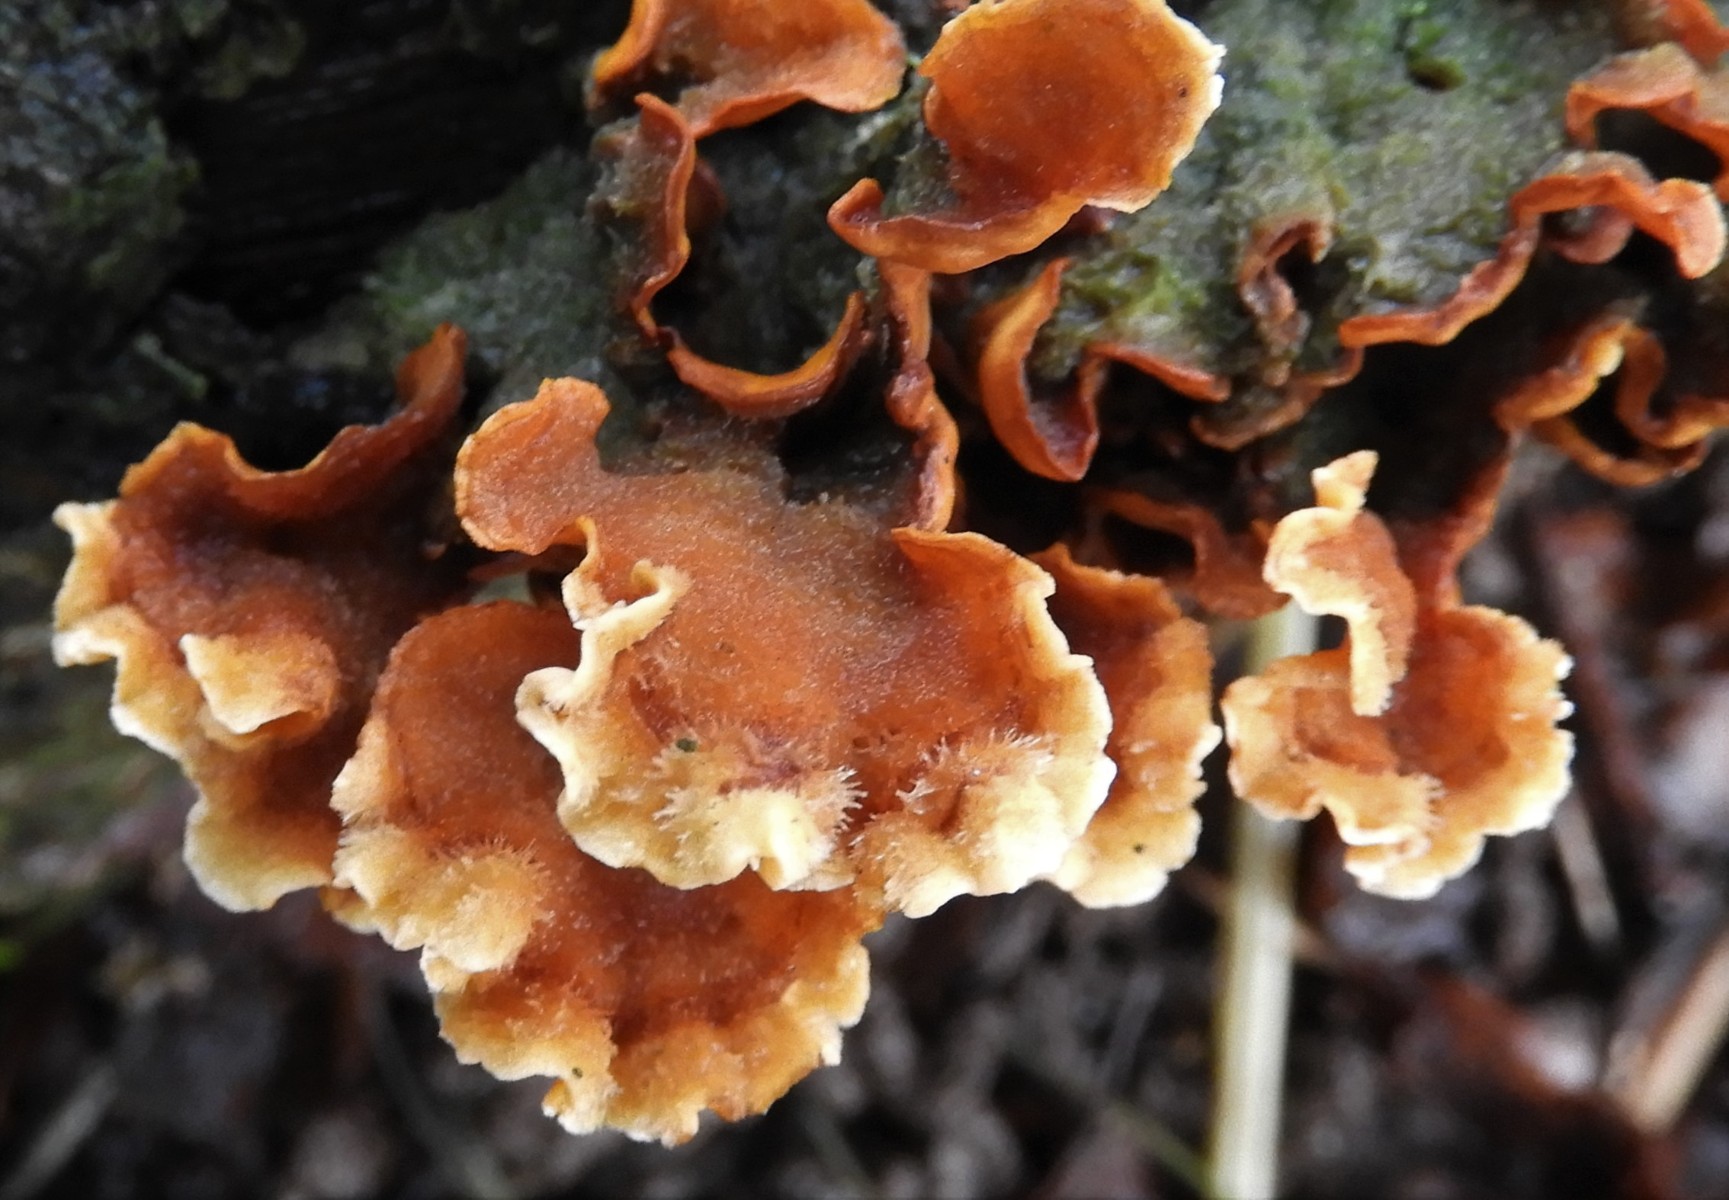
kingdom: Fungi
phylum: Basidiomycota
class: Agaricomycetes
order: Russulales
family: Stereaceae
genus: Stereum
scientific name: Stereum hirsutum
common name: håret lædersvamp
